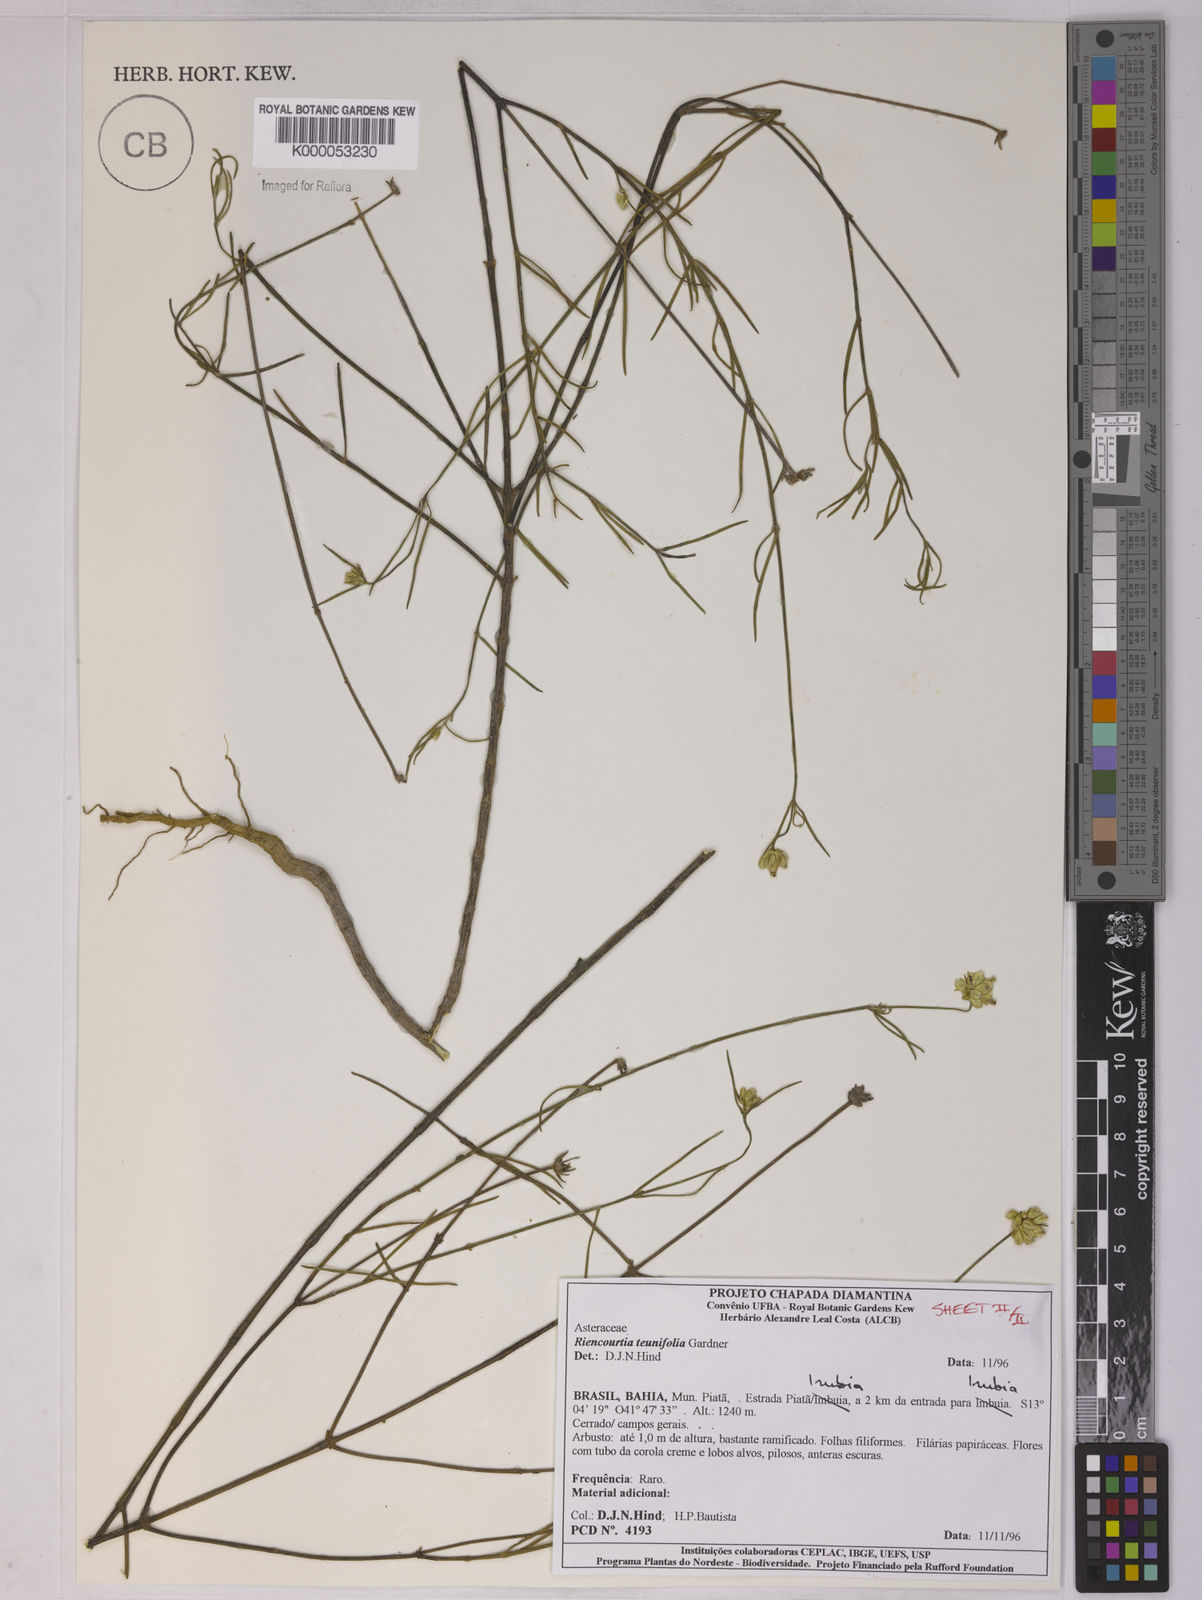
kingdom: Plantae
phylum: Tracheophyta
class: Magnoliopsida
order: Asterales
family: Asteraceae
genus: Riencourtia
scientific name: Riencourtia tenuifolia
